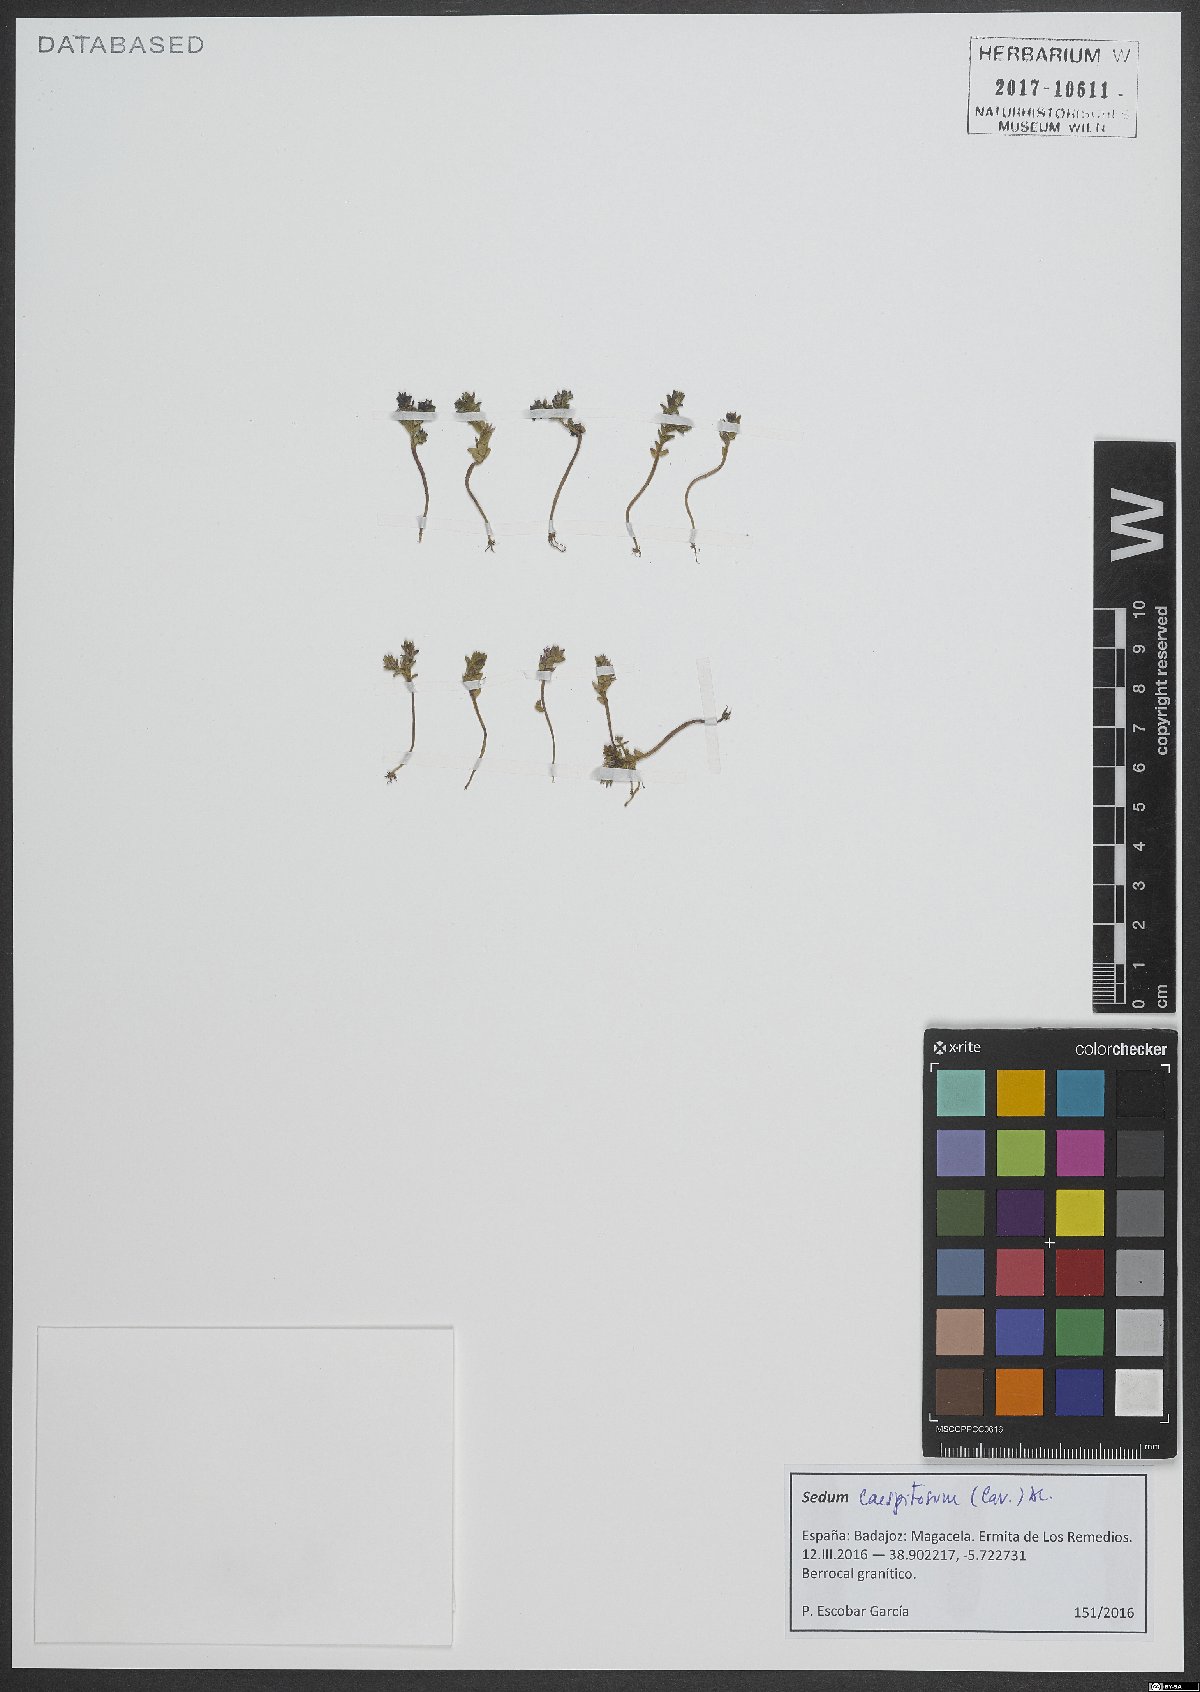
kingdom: Plantae
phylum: Tracheophyta
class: Magnoliopsida
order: Saxifragales
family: Crassulaceae
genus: Sedum
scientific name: Sedum cespitosum
